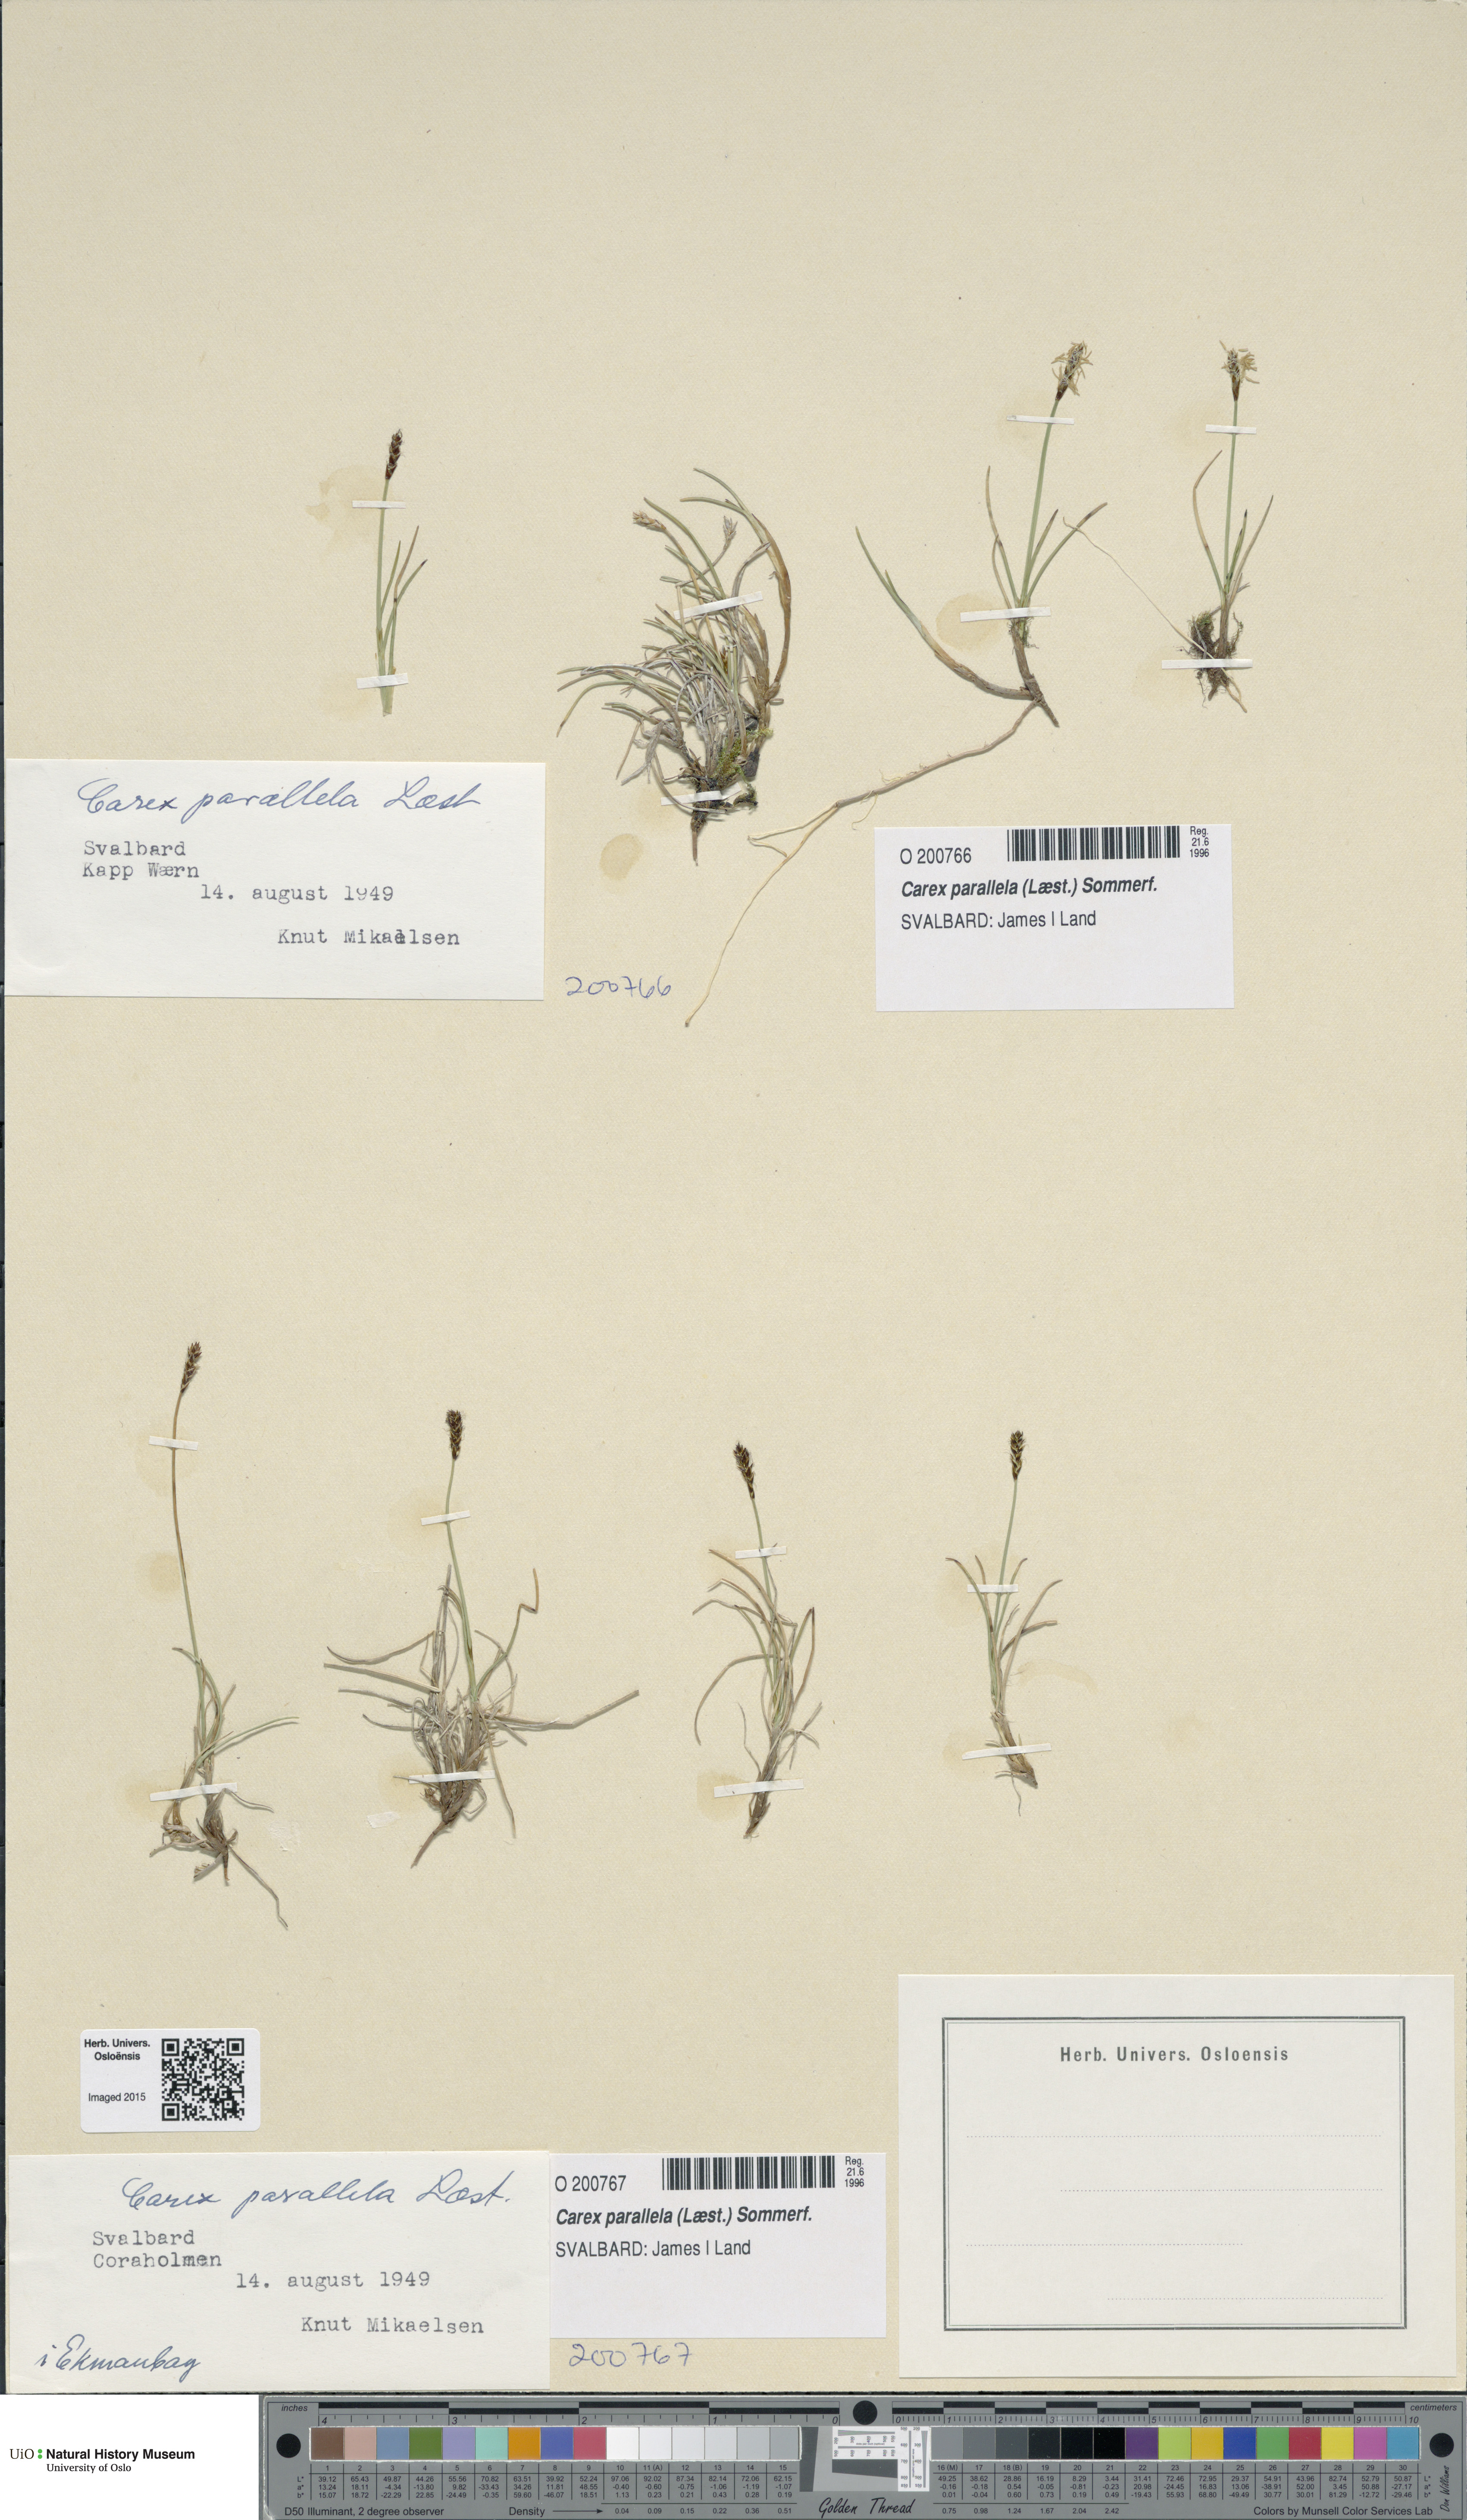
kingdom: Plantae
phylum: Tracheophyta
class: Liliopsida
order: Poales
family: Cyperaceae
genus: Carex
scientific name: Carex parallela
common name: Parallel sedge
